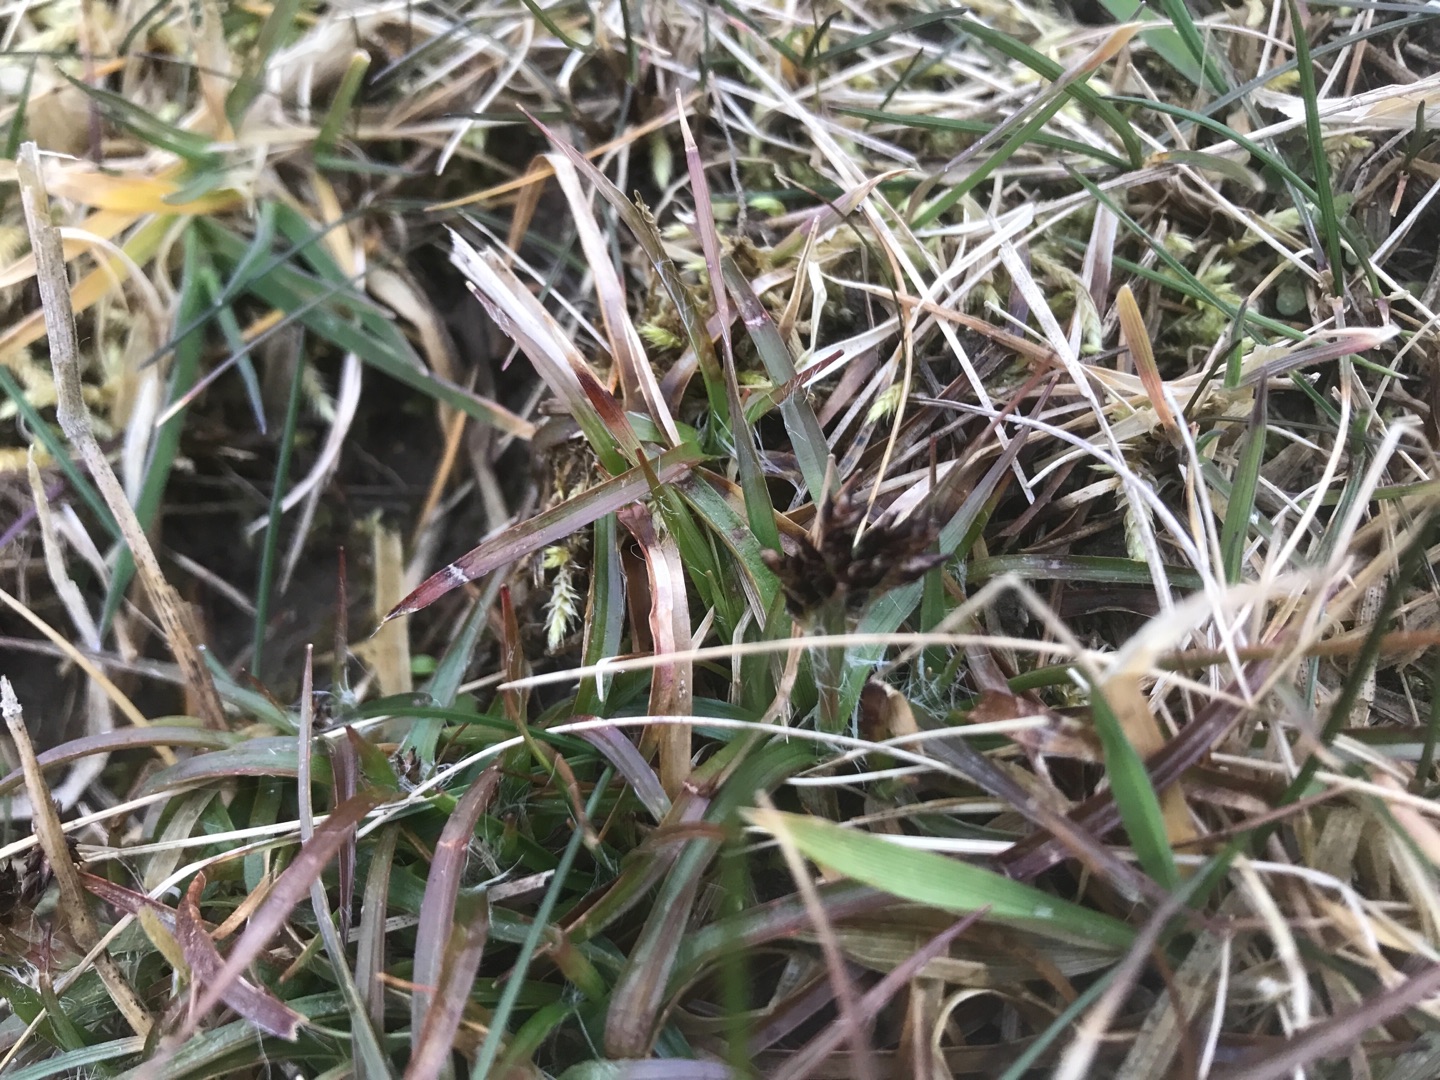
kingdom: Plantae
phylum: Tracheophyta
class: Liliopsida
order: Poales
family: Juncaceae
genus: Luzula
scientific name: Luzula campestris
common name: Mark-frytle
